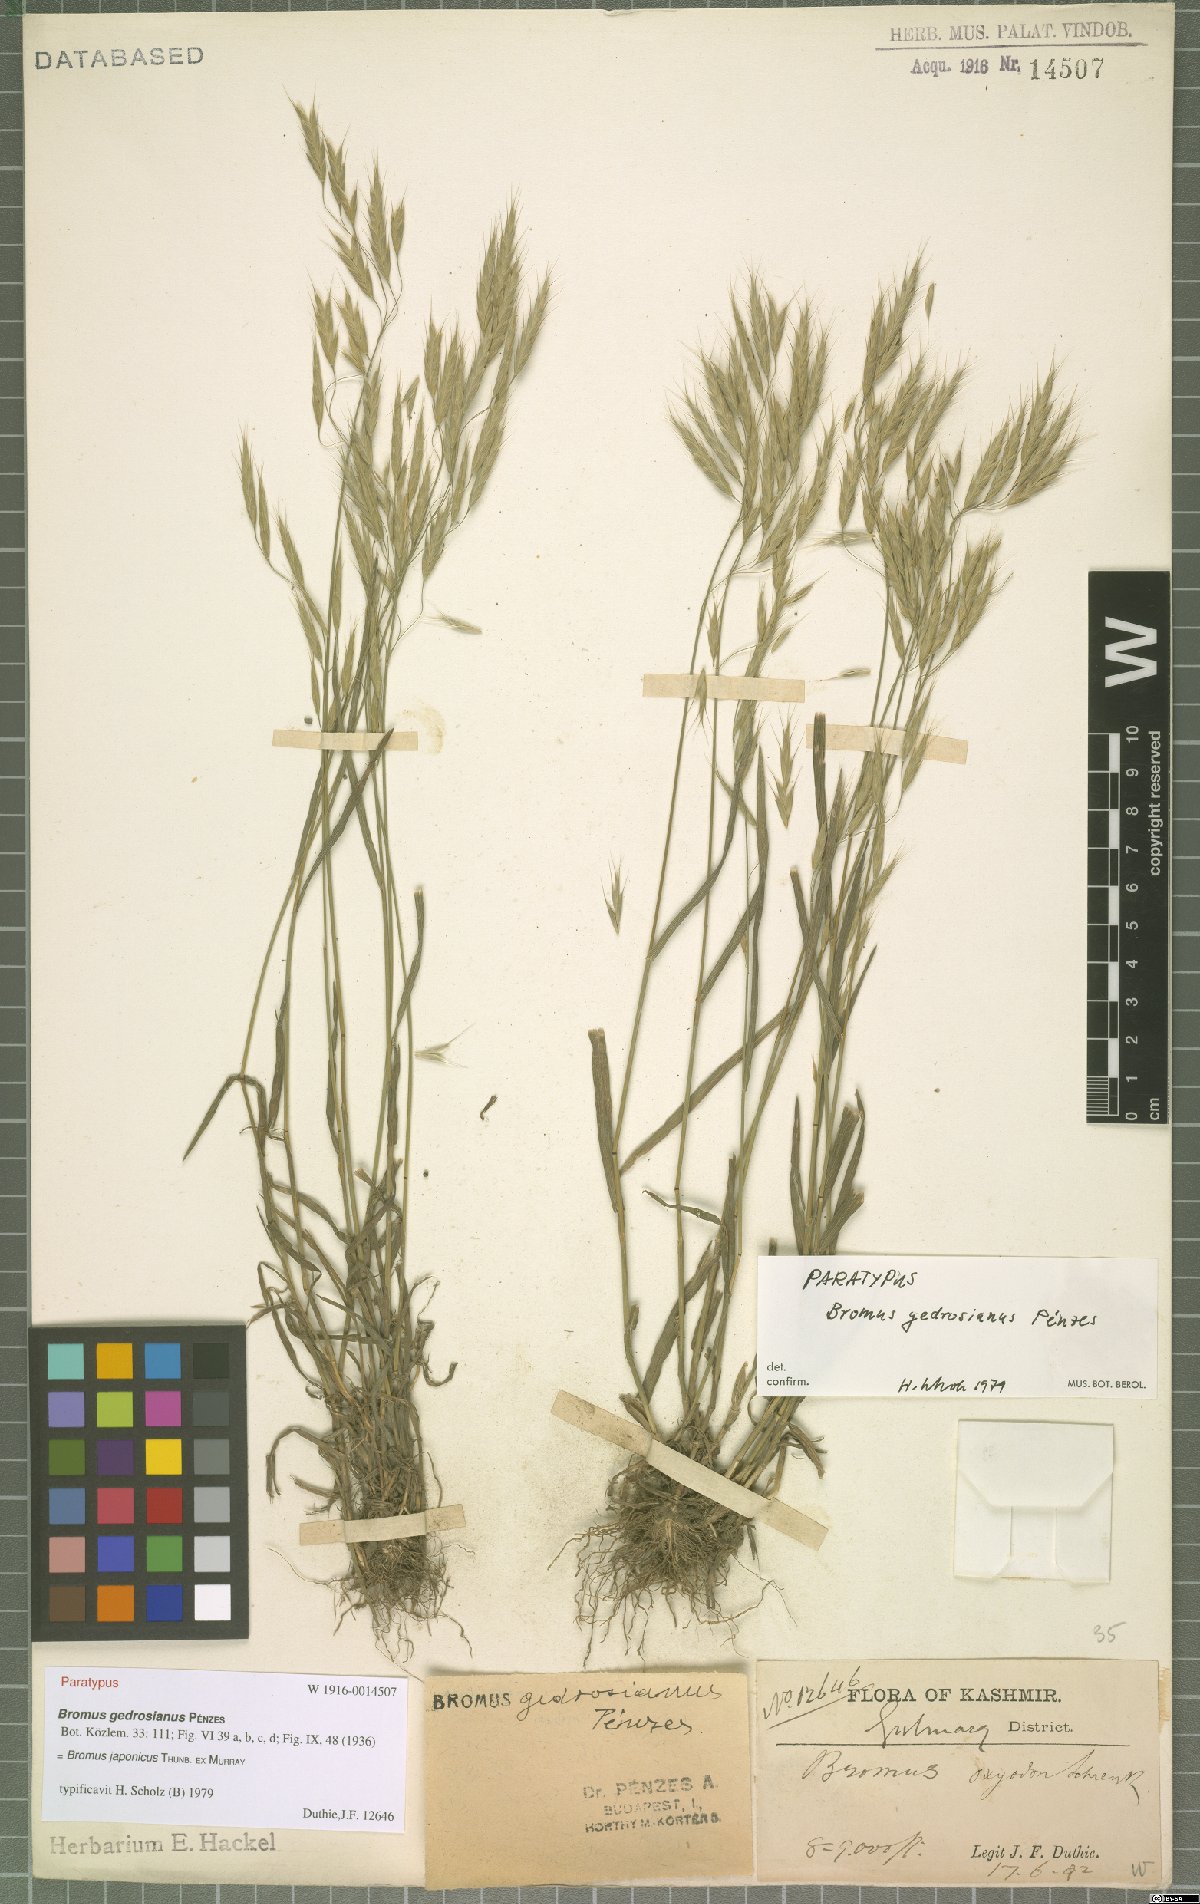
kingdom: Plantae
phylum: Tracheophyta
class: Liliopsida
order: Poales
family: Poaceae
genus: Bromus
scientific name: Bromus japonicus
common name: Japanese brome
